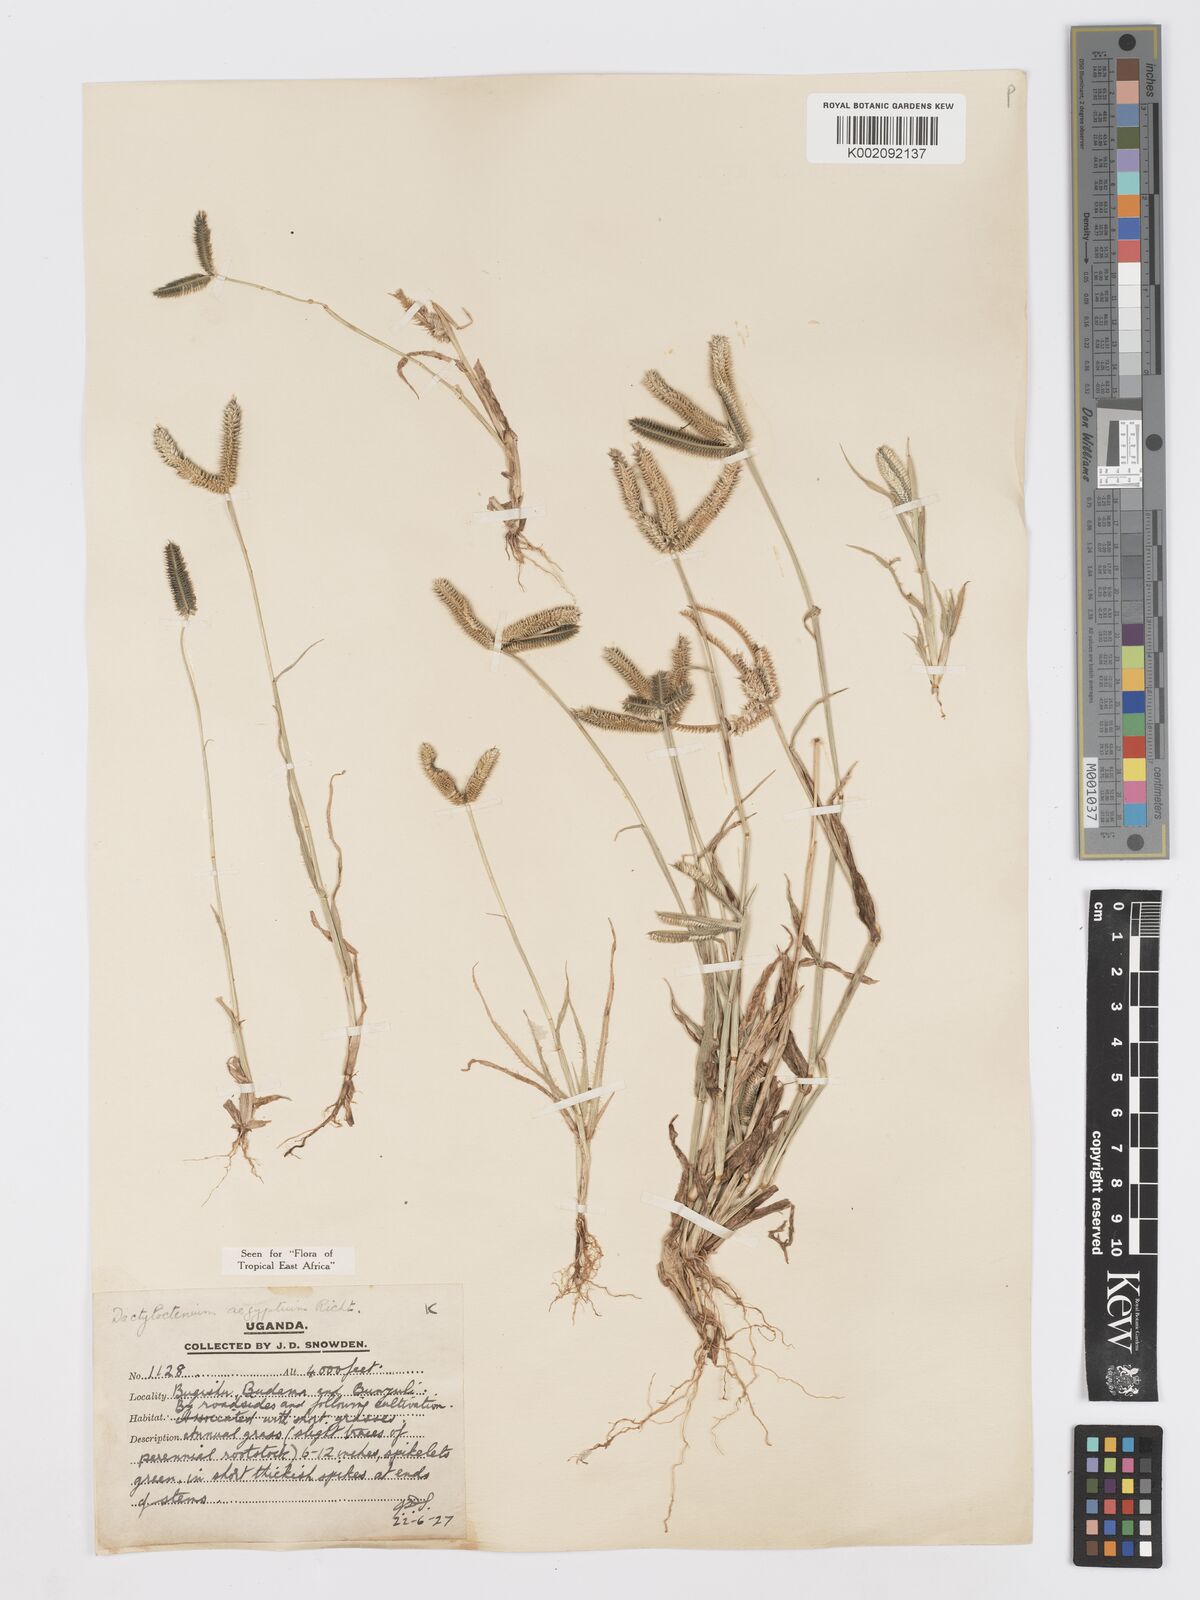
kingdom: Plantae
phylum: Tracheophyta
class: Liliopsida
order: Poales
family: Poaceae
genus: Dactyloctenium
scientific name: Dactyloctenium aegyptium
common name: Egyptian grass
